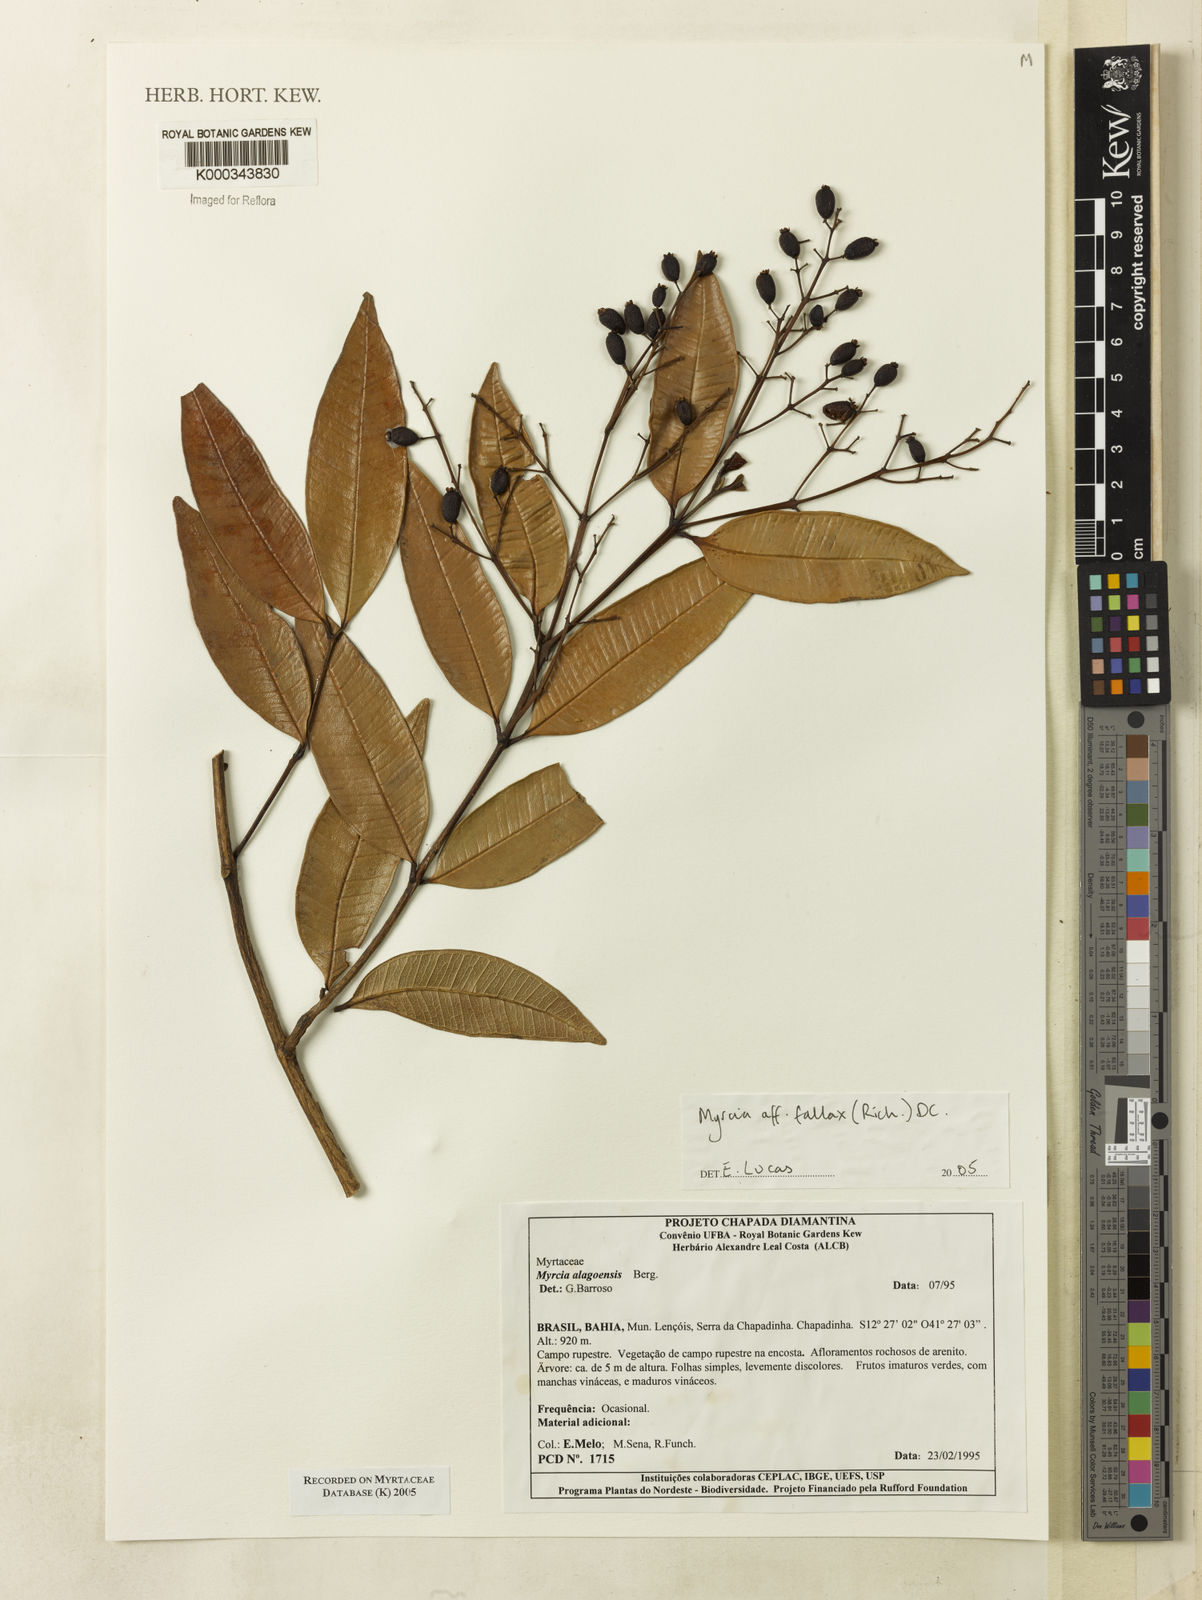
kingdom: Plantae
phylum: Tracheophyta
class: Magnoliopsida
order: Myrtales
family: Myrtaceae
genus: Myrcia
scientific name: Myrcia splendens
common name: Surinam cherry
